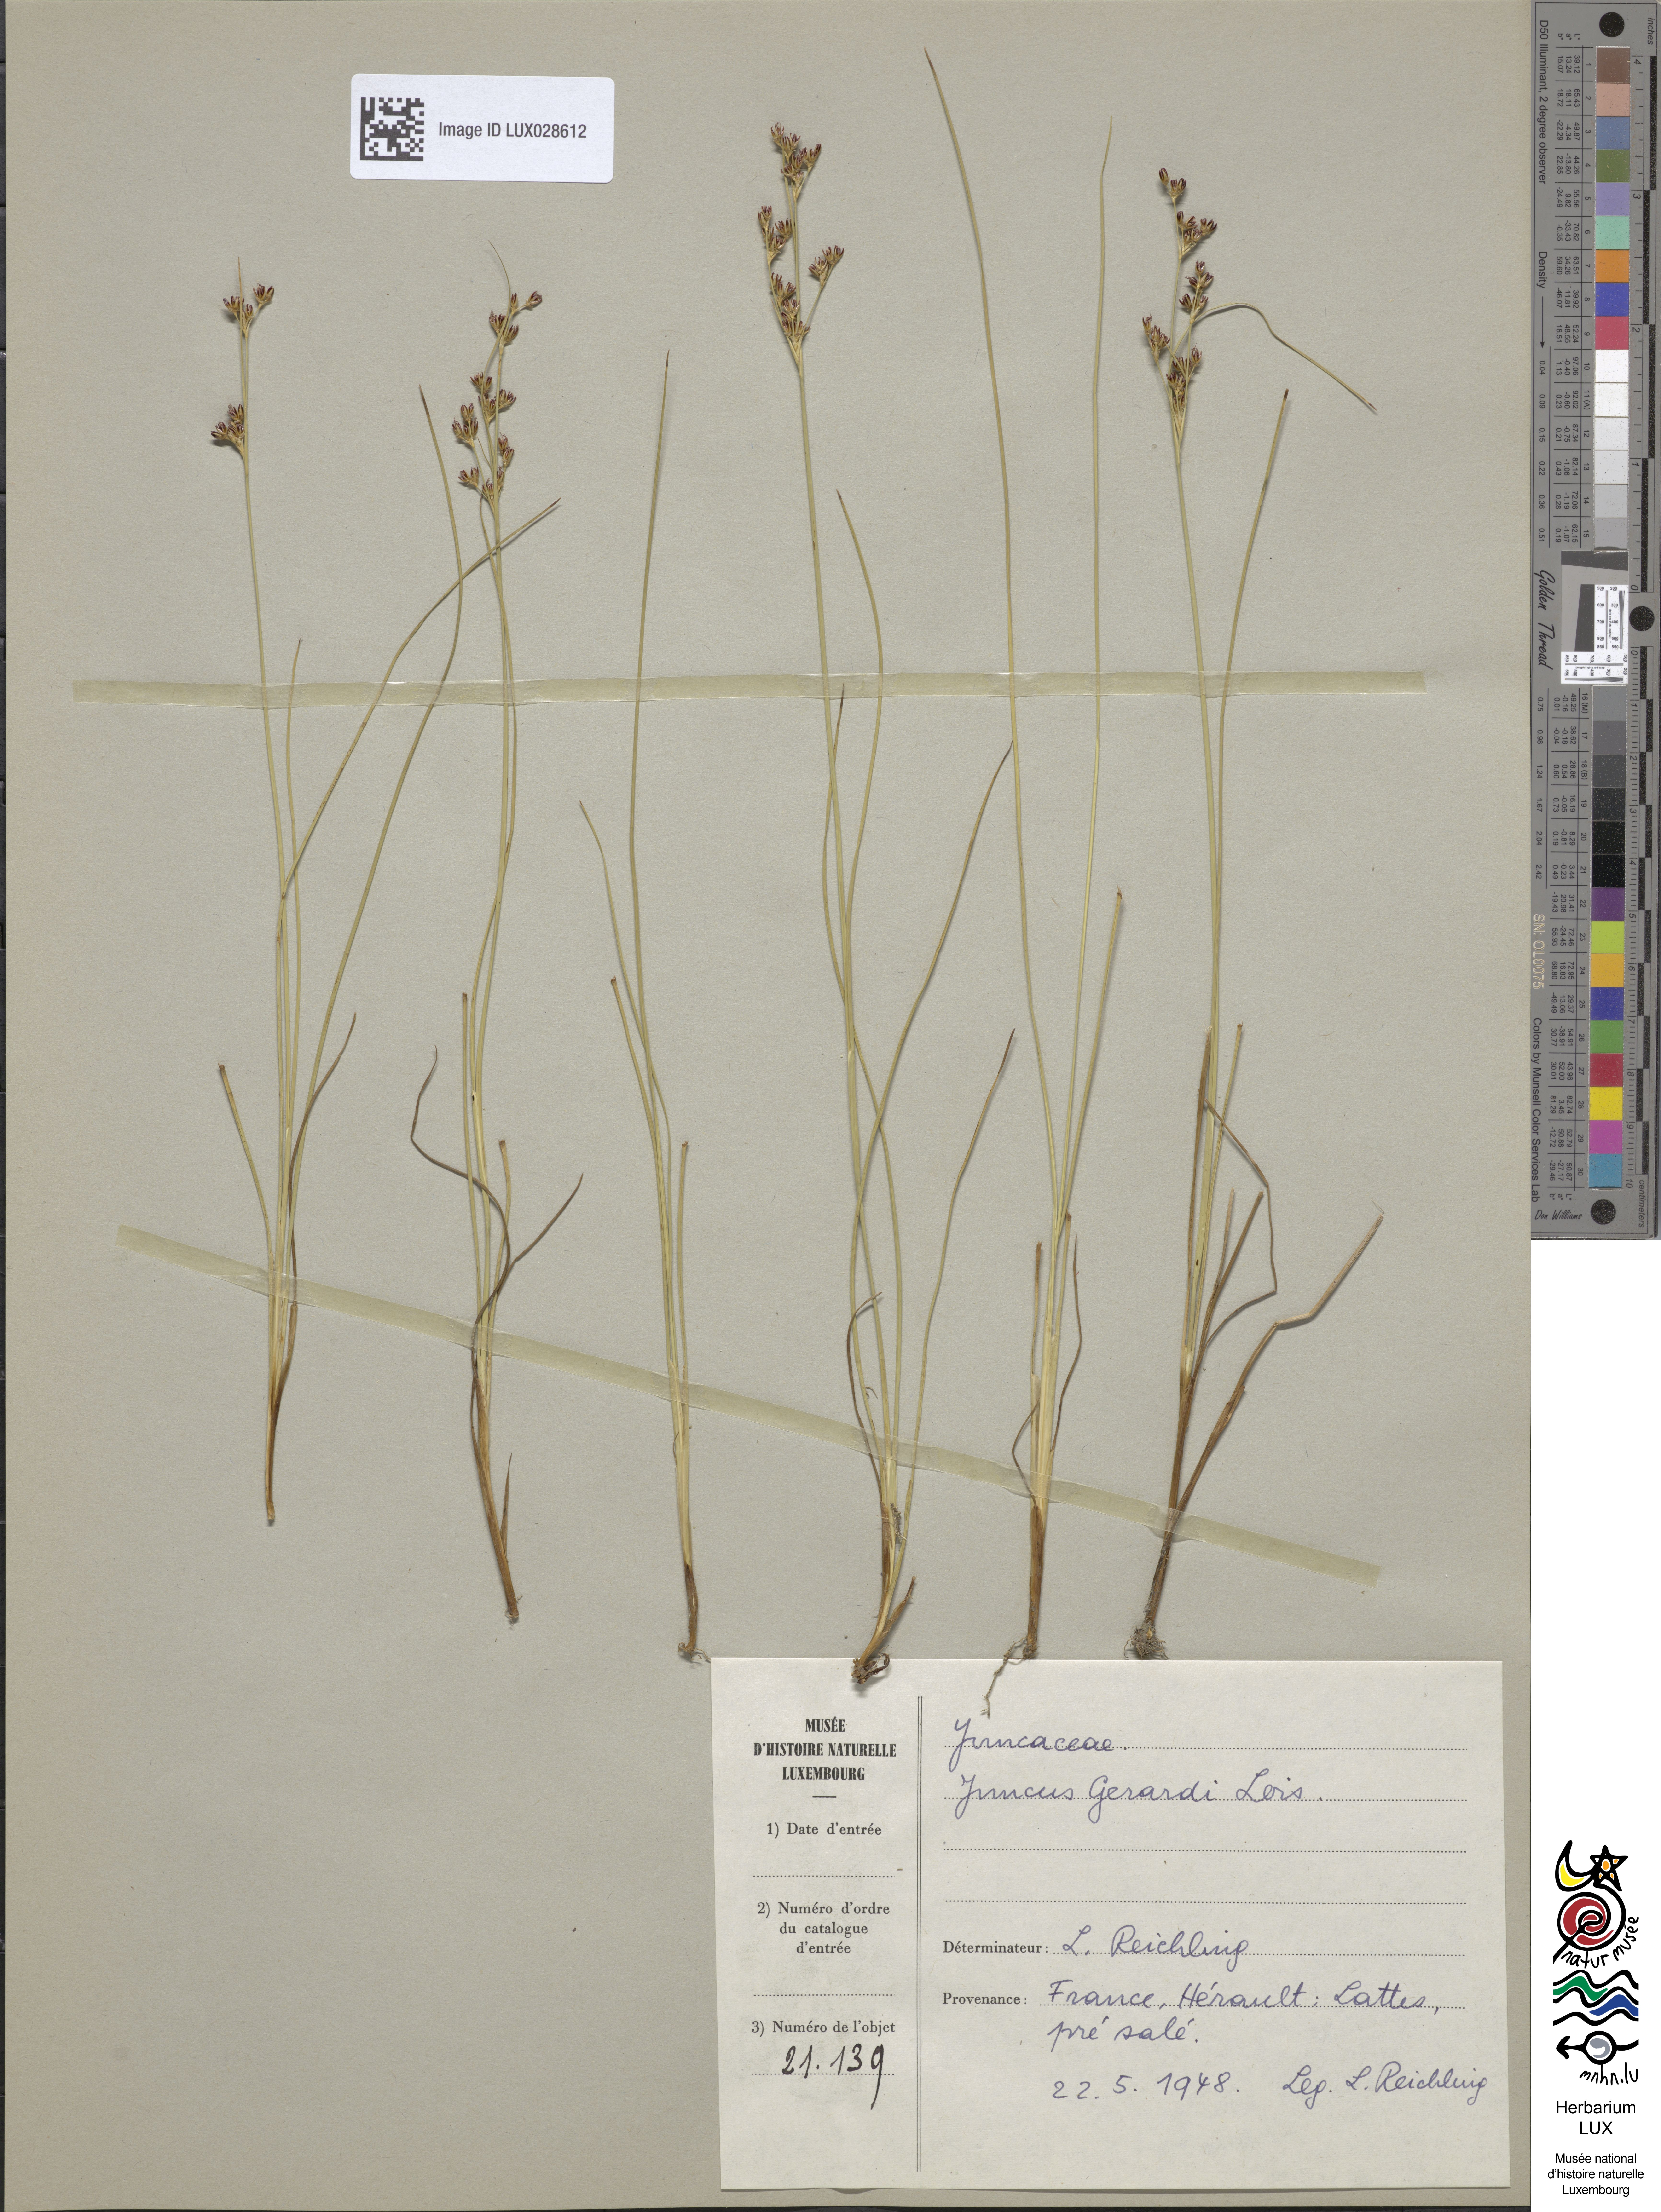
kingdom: Plantae
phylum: Tracheophyta
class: Liliopsida
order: Poales
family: Juncaceae
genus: Juncus
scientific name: Juncus gerardi
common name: Saltmarsh rush
